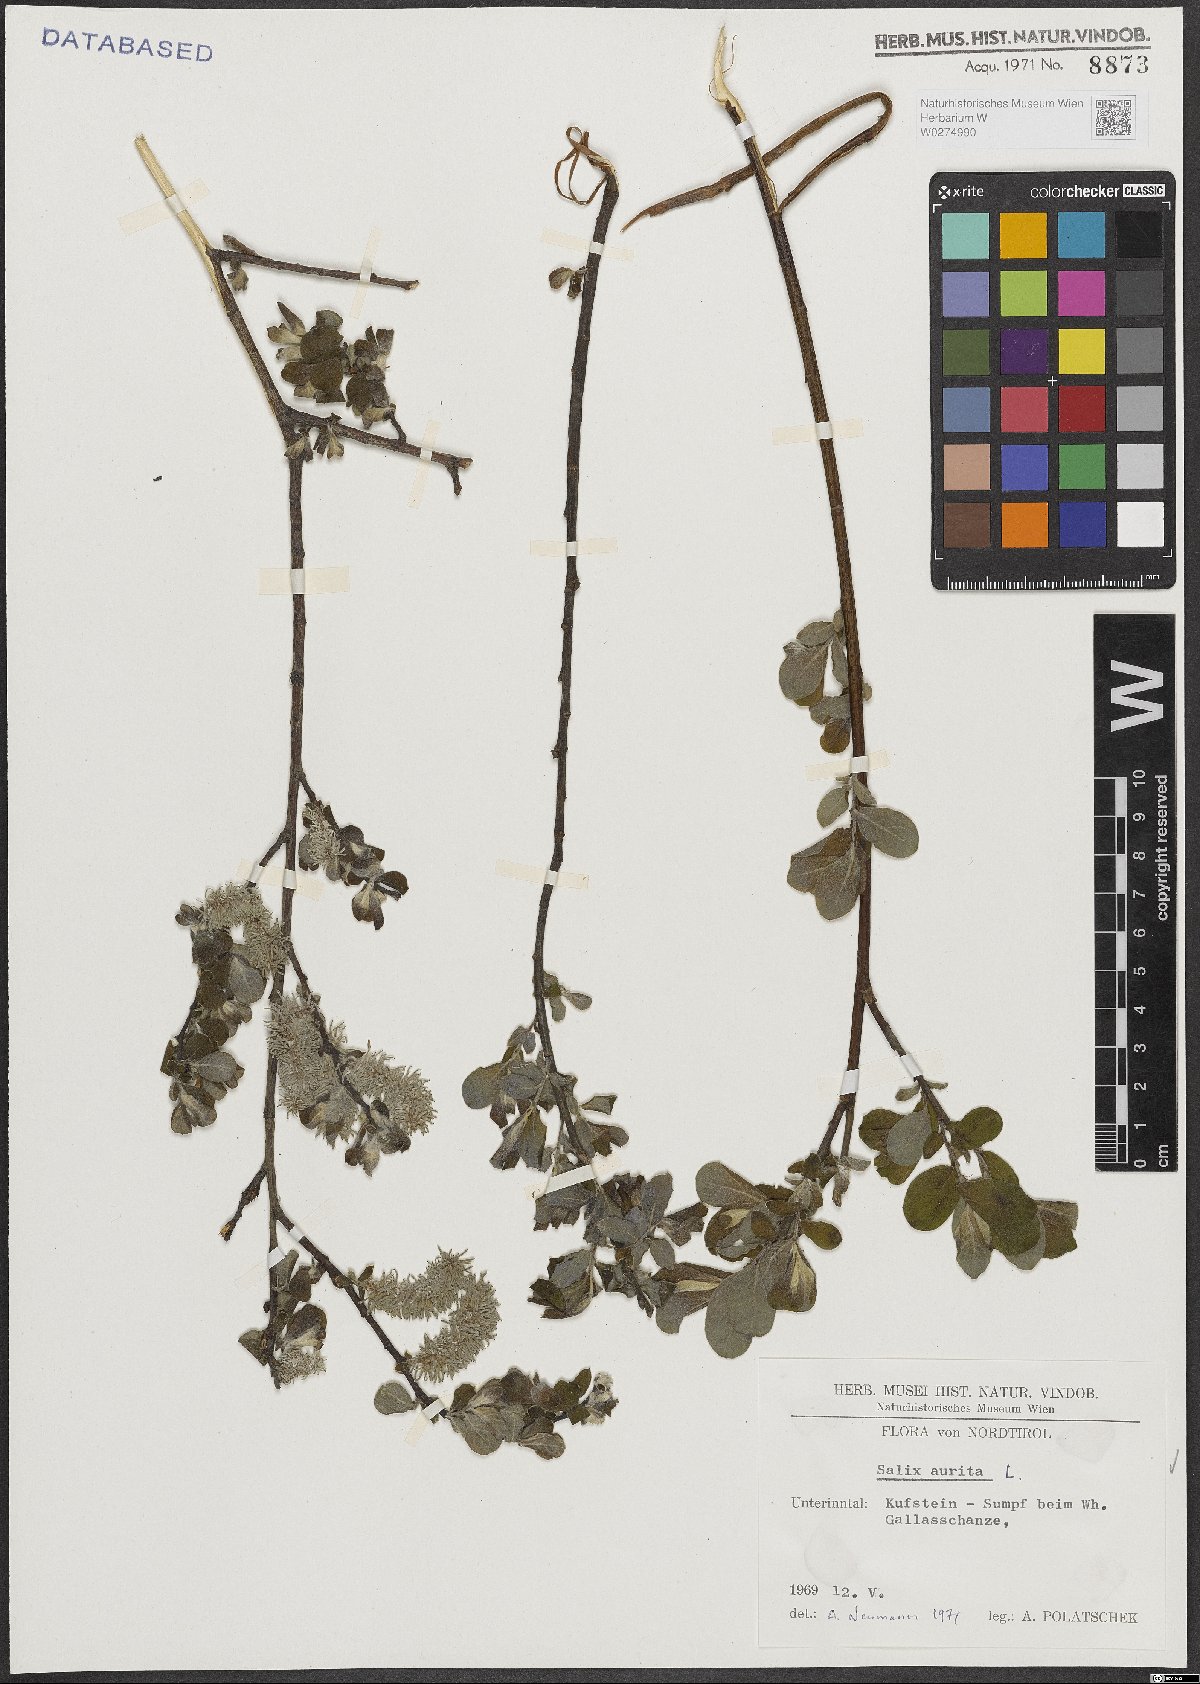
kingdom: Plantae
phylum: Tracheophyta
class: Magnoliopsida
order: Malpighiales
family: Salicaceae
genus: Salix
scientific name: Salix aurita
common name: Eared willow
